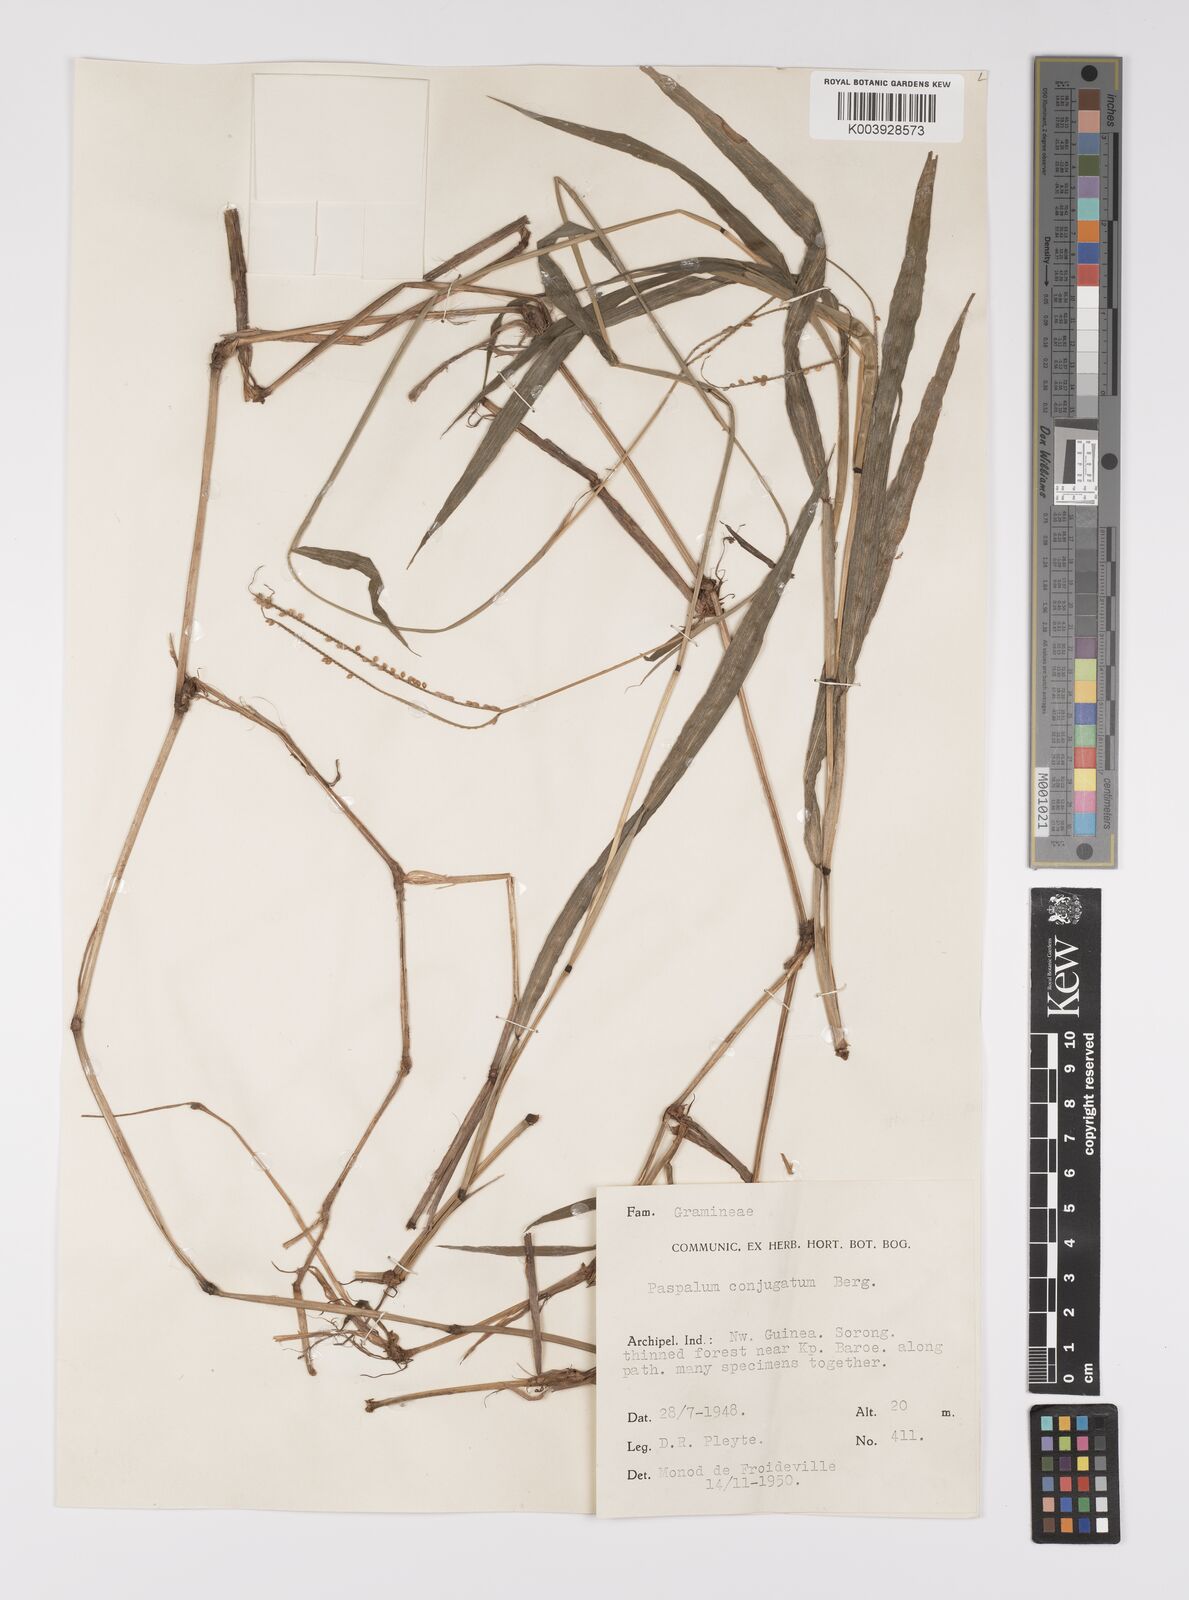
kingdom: Plantae
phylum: Tracheophyta
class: Liliopsida
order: Poales
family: Poaceae
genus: Paspalum
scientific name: Paspalum conjugatum
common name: Hilograss
